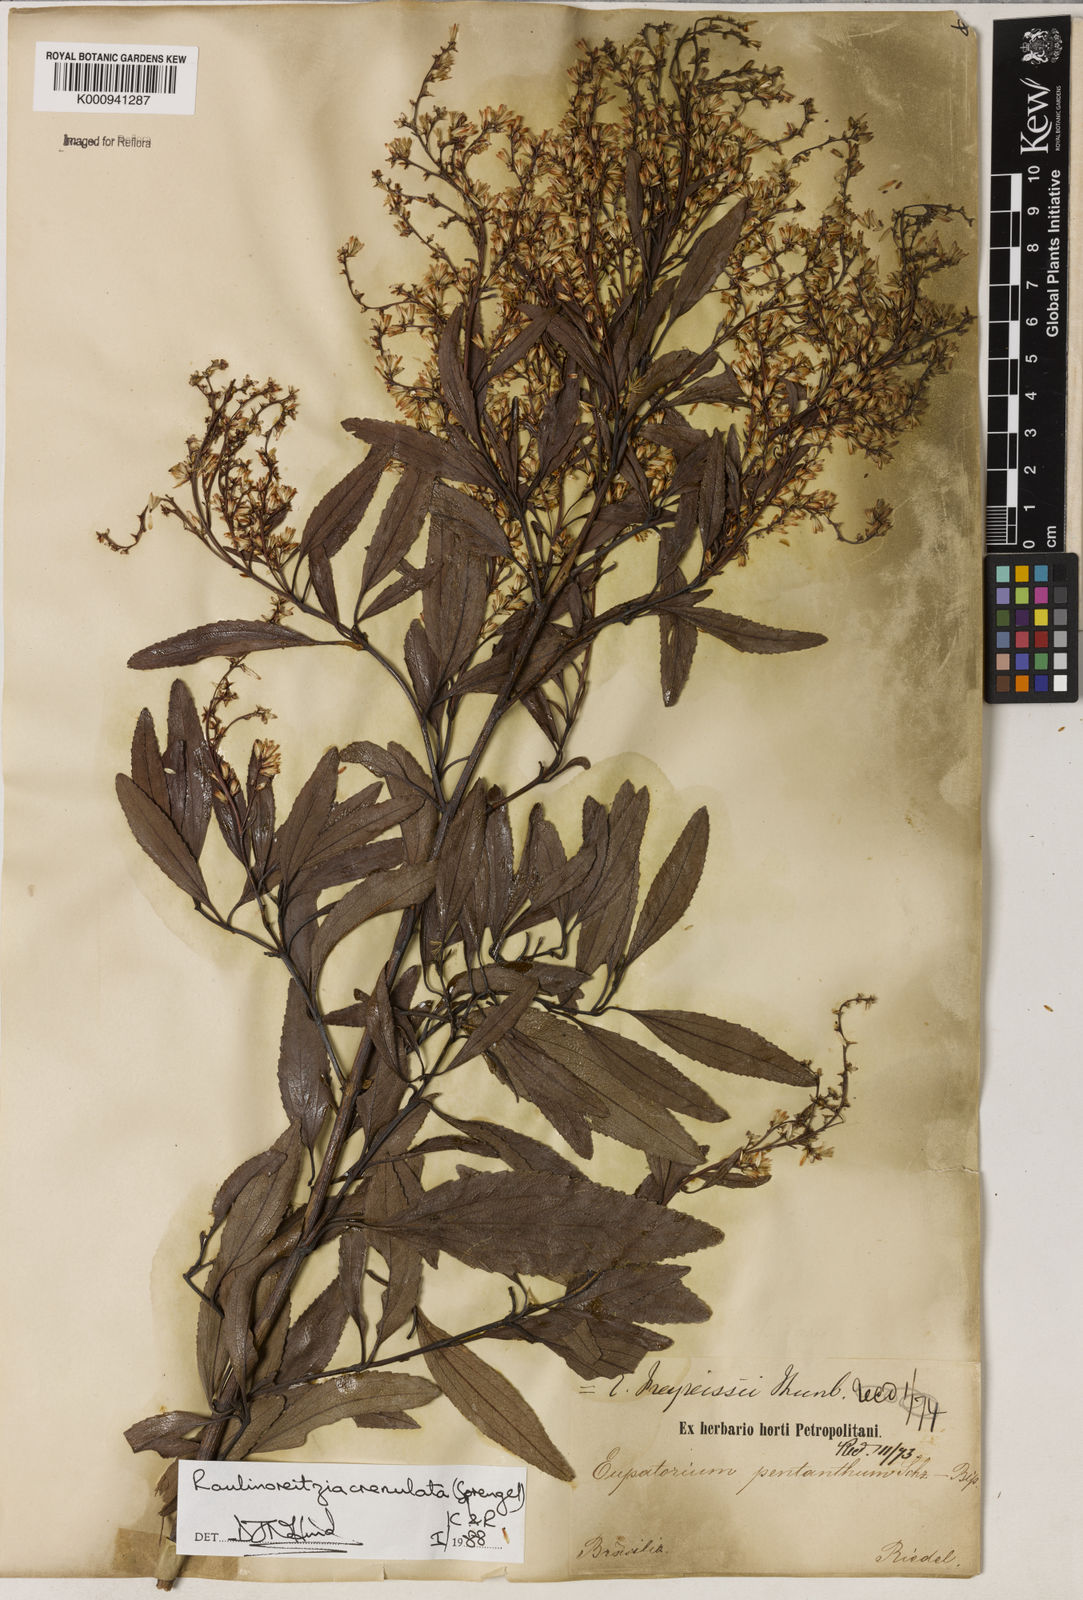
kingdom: Plantae
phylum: Tracheophyta
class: Magnoliopsida
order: Asterales
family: Asteraceae
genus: Raulinoreitzia
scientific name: Raulinoreitzia crenulata
